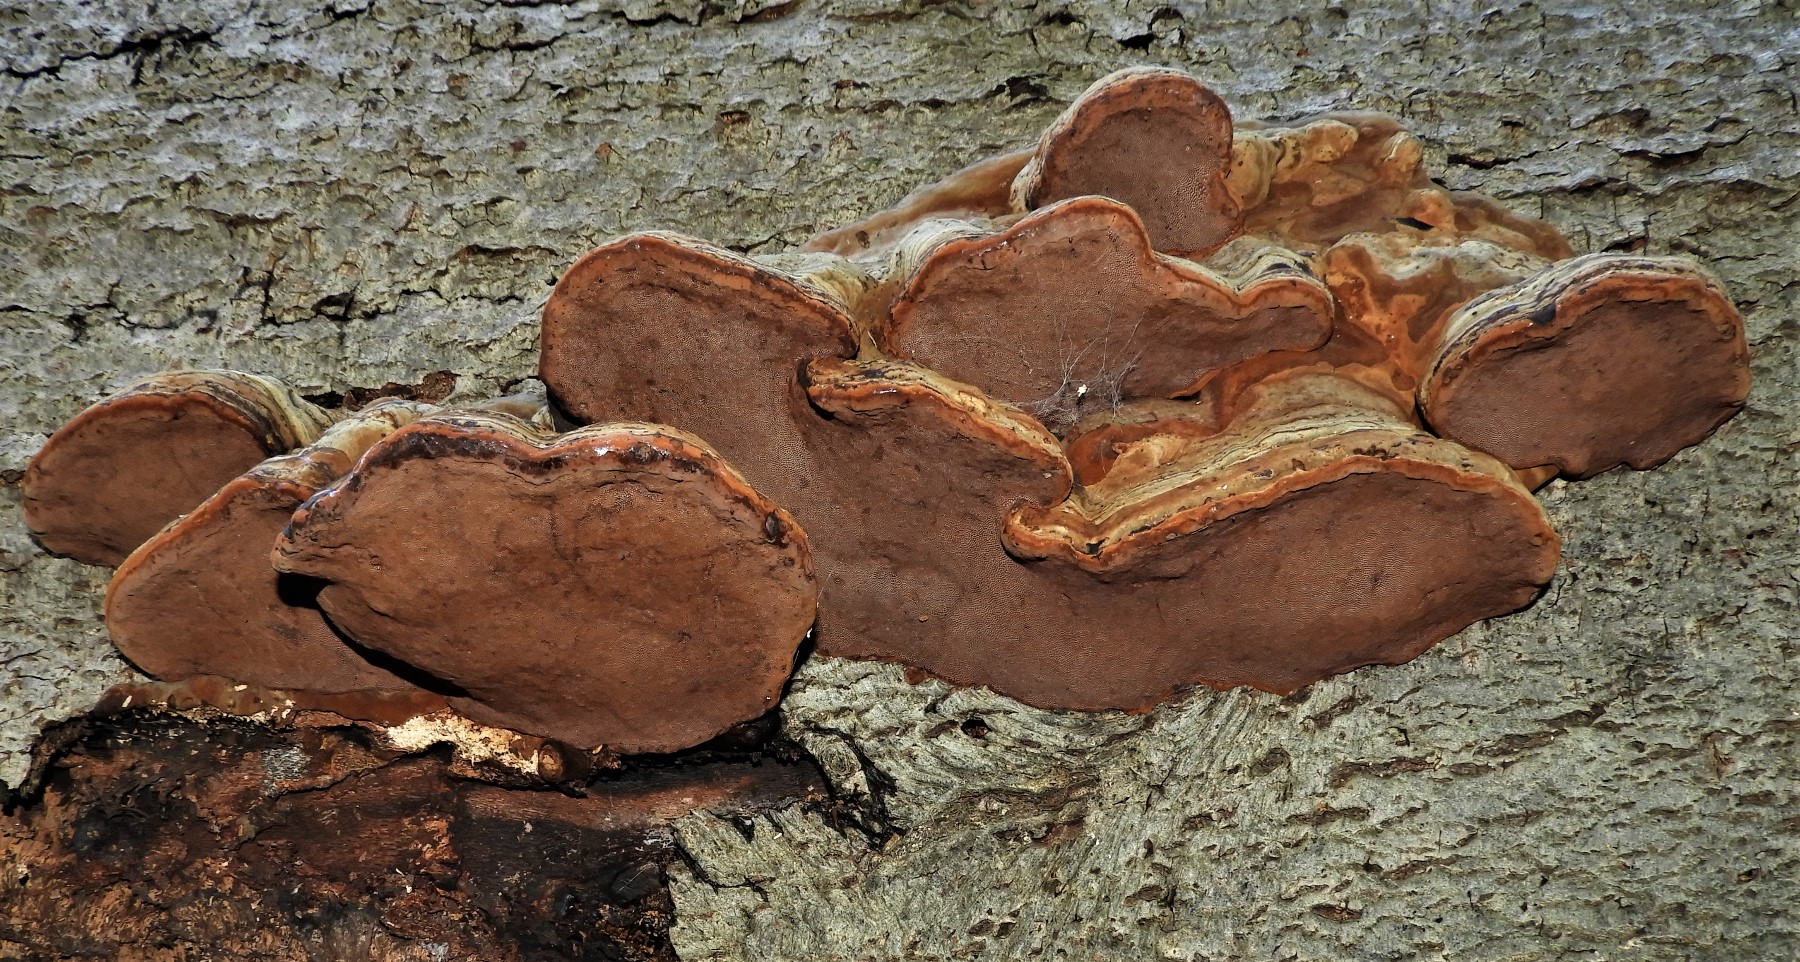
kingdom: Fungi
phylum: Basidiomycota
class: Agaricomycetes
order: Polyporales
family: Polyporaceae
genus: Fomes
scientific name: Fomes fomentarius
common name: tøndersvamp
